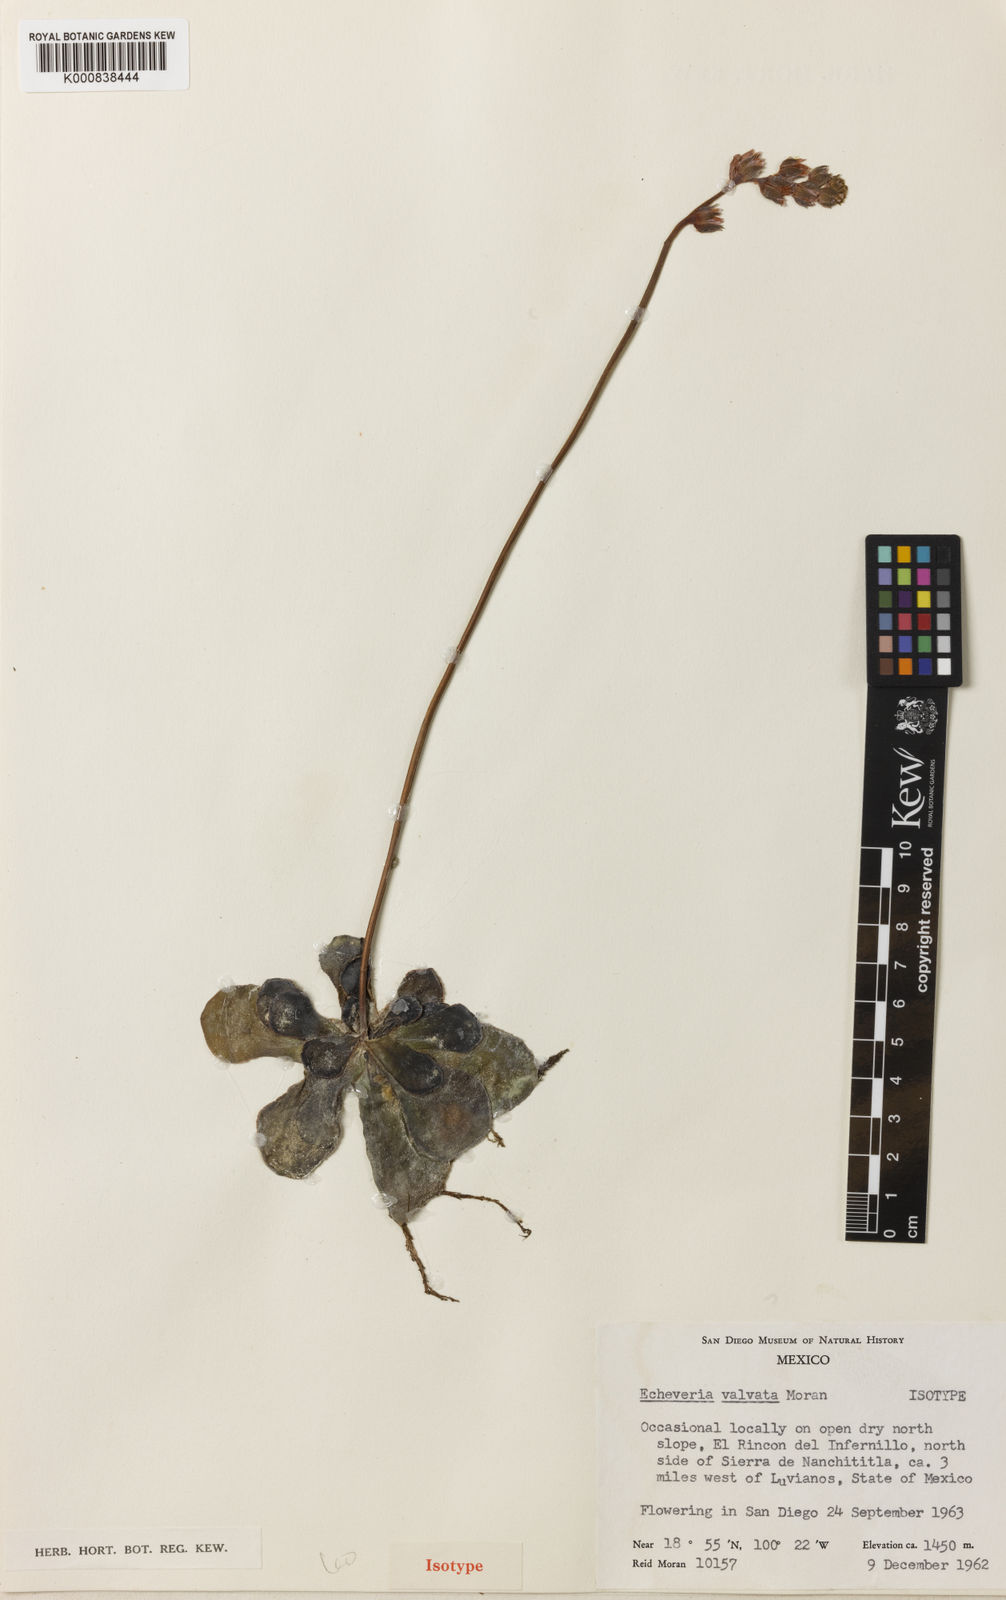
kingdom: Plantae
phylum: Tracheophyta
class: Magnoliopsida
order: Saxifragales
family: Crassulaceae
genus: Echeveria
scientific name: Echeveria valvata
